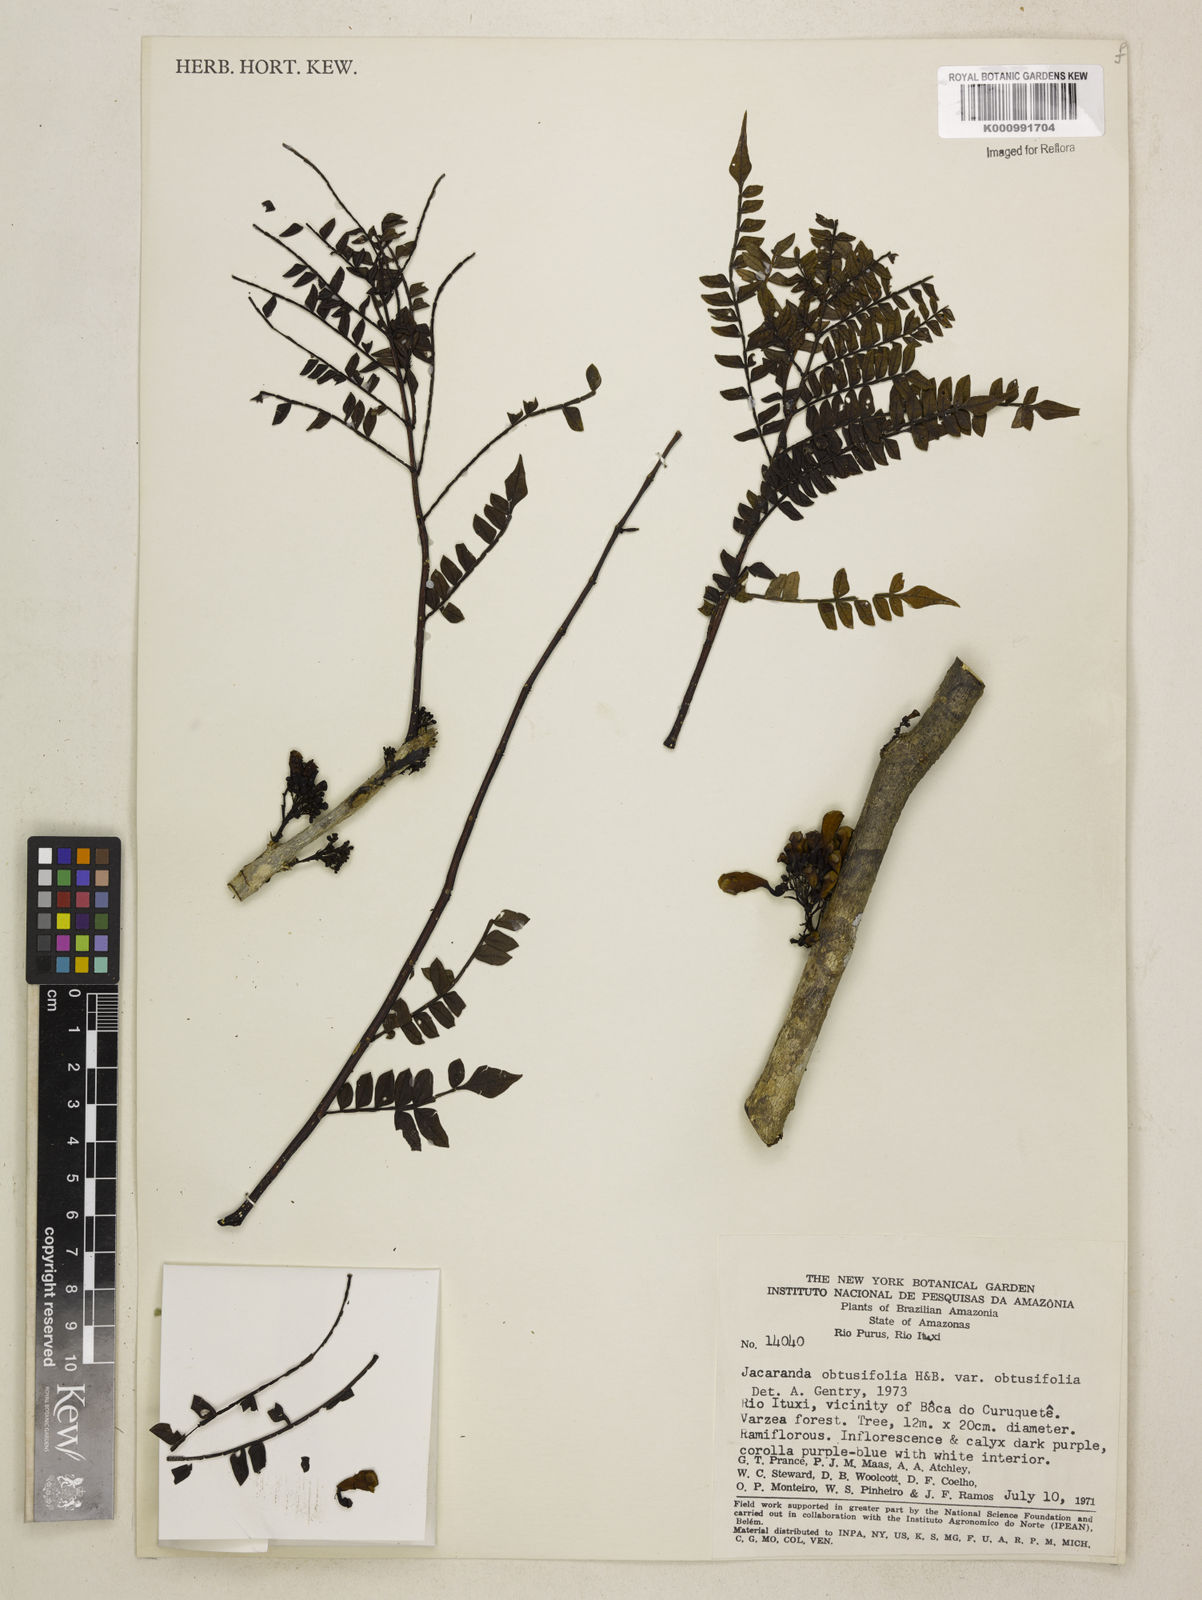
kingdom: Plantae
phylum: Tracheophyta
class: Magnoliopsida
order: Lamiales
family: Bignoniaceae
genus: Jacaranda
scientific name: Jacaranda obtusifolia
